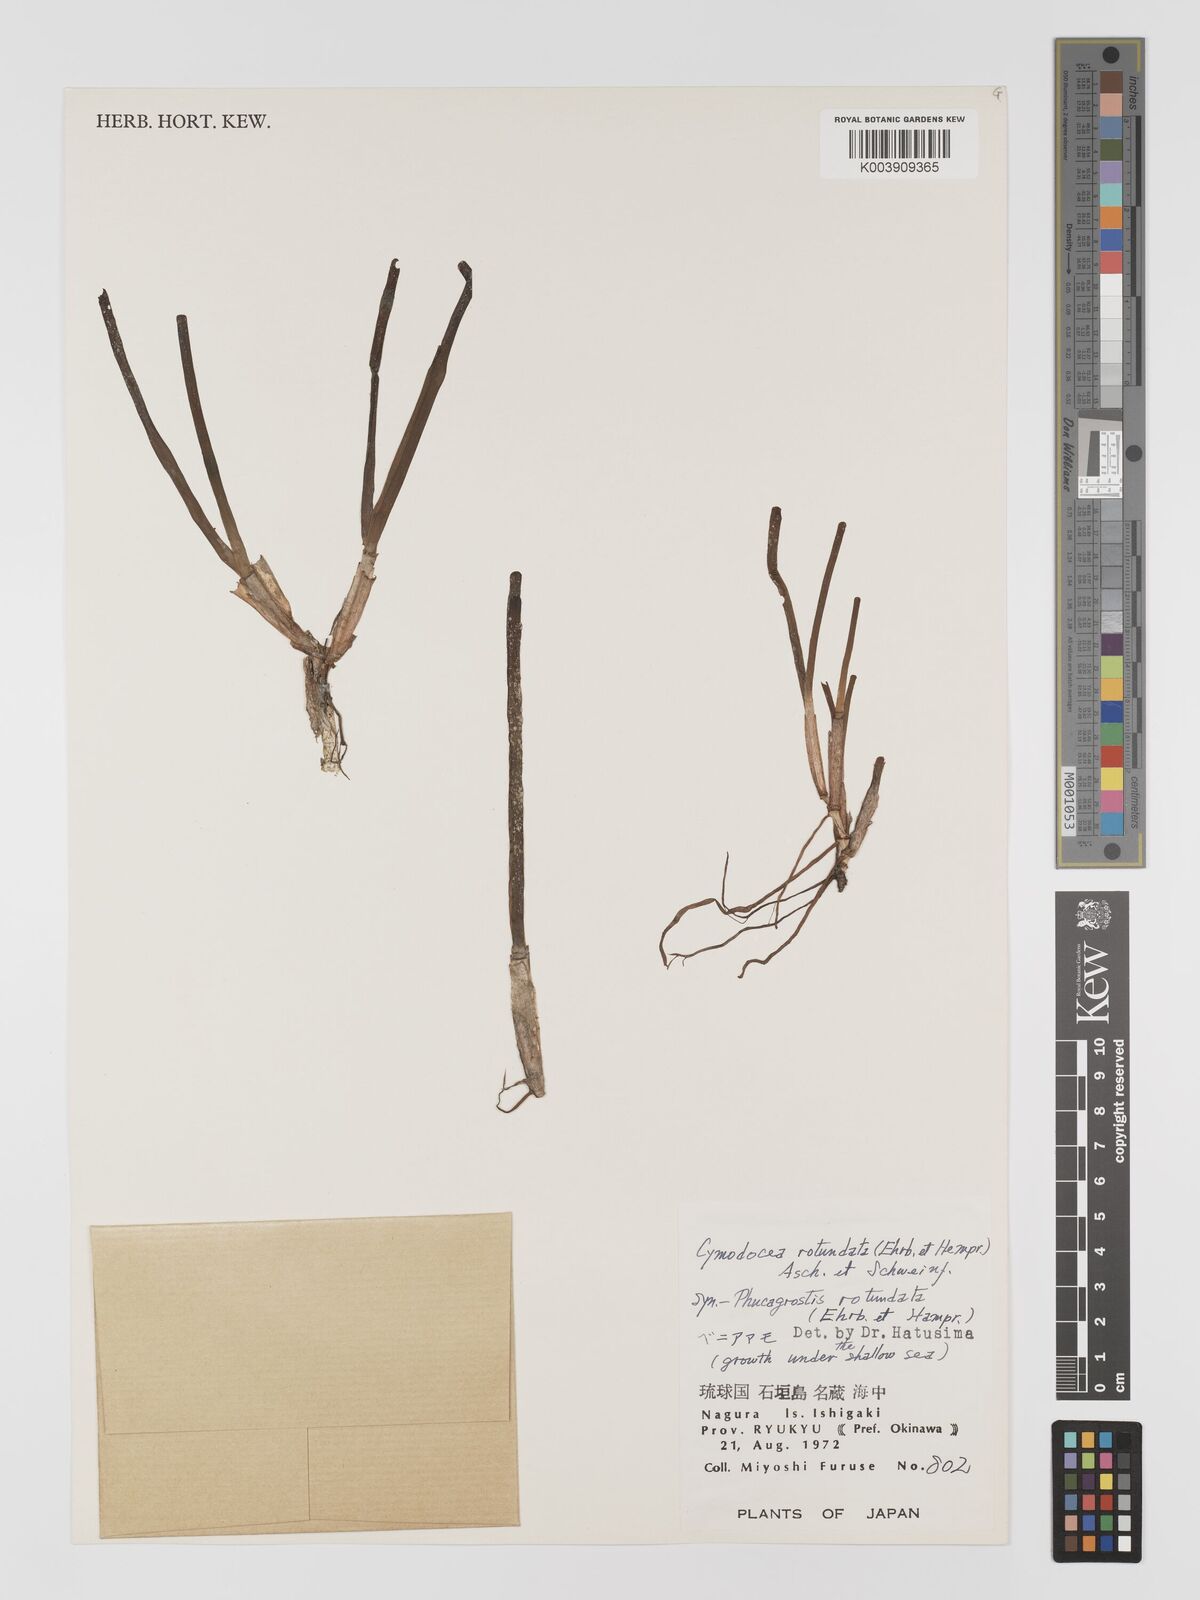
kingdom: Plantae
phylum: Tracheophyta
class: Liliopsida
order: Alismatales
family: Cymodoceaceae
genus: Cymodocea
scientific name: Cymodocea rotundata
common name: Species code: cr
